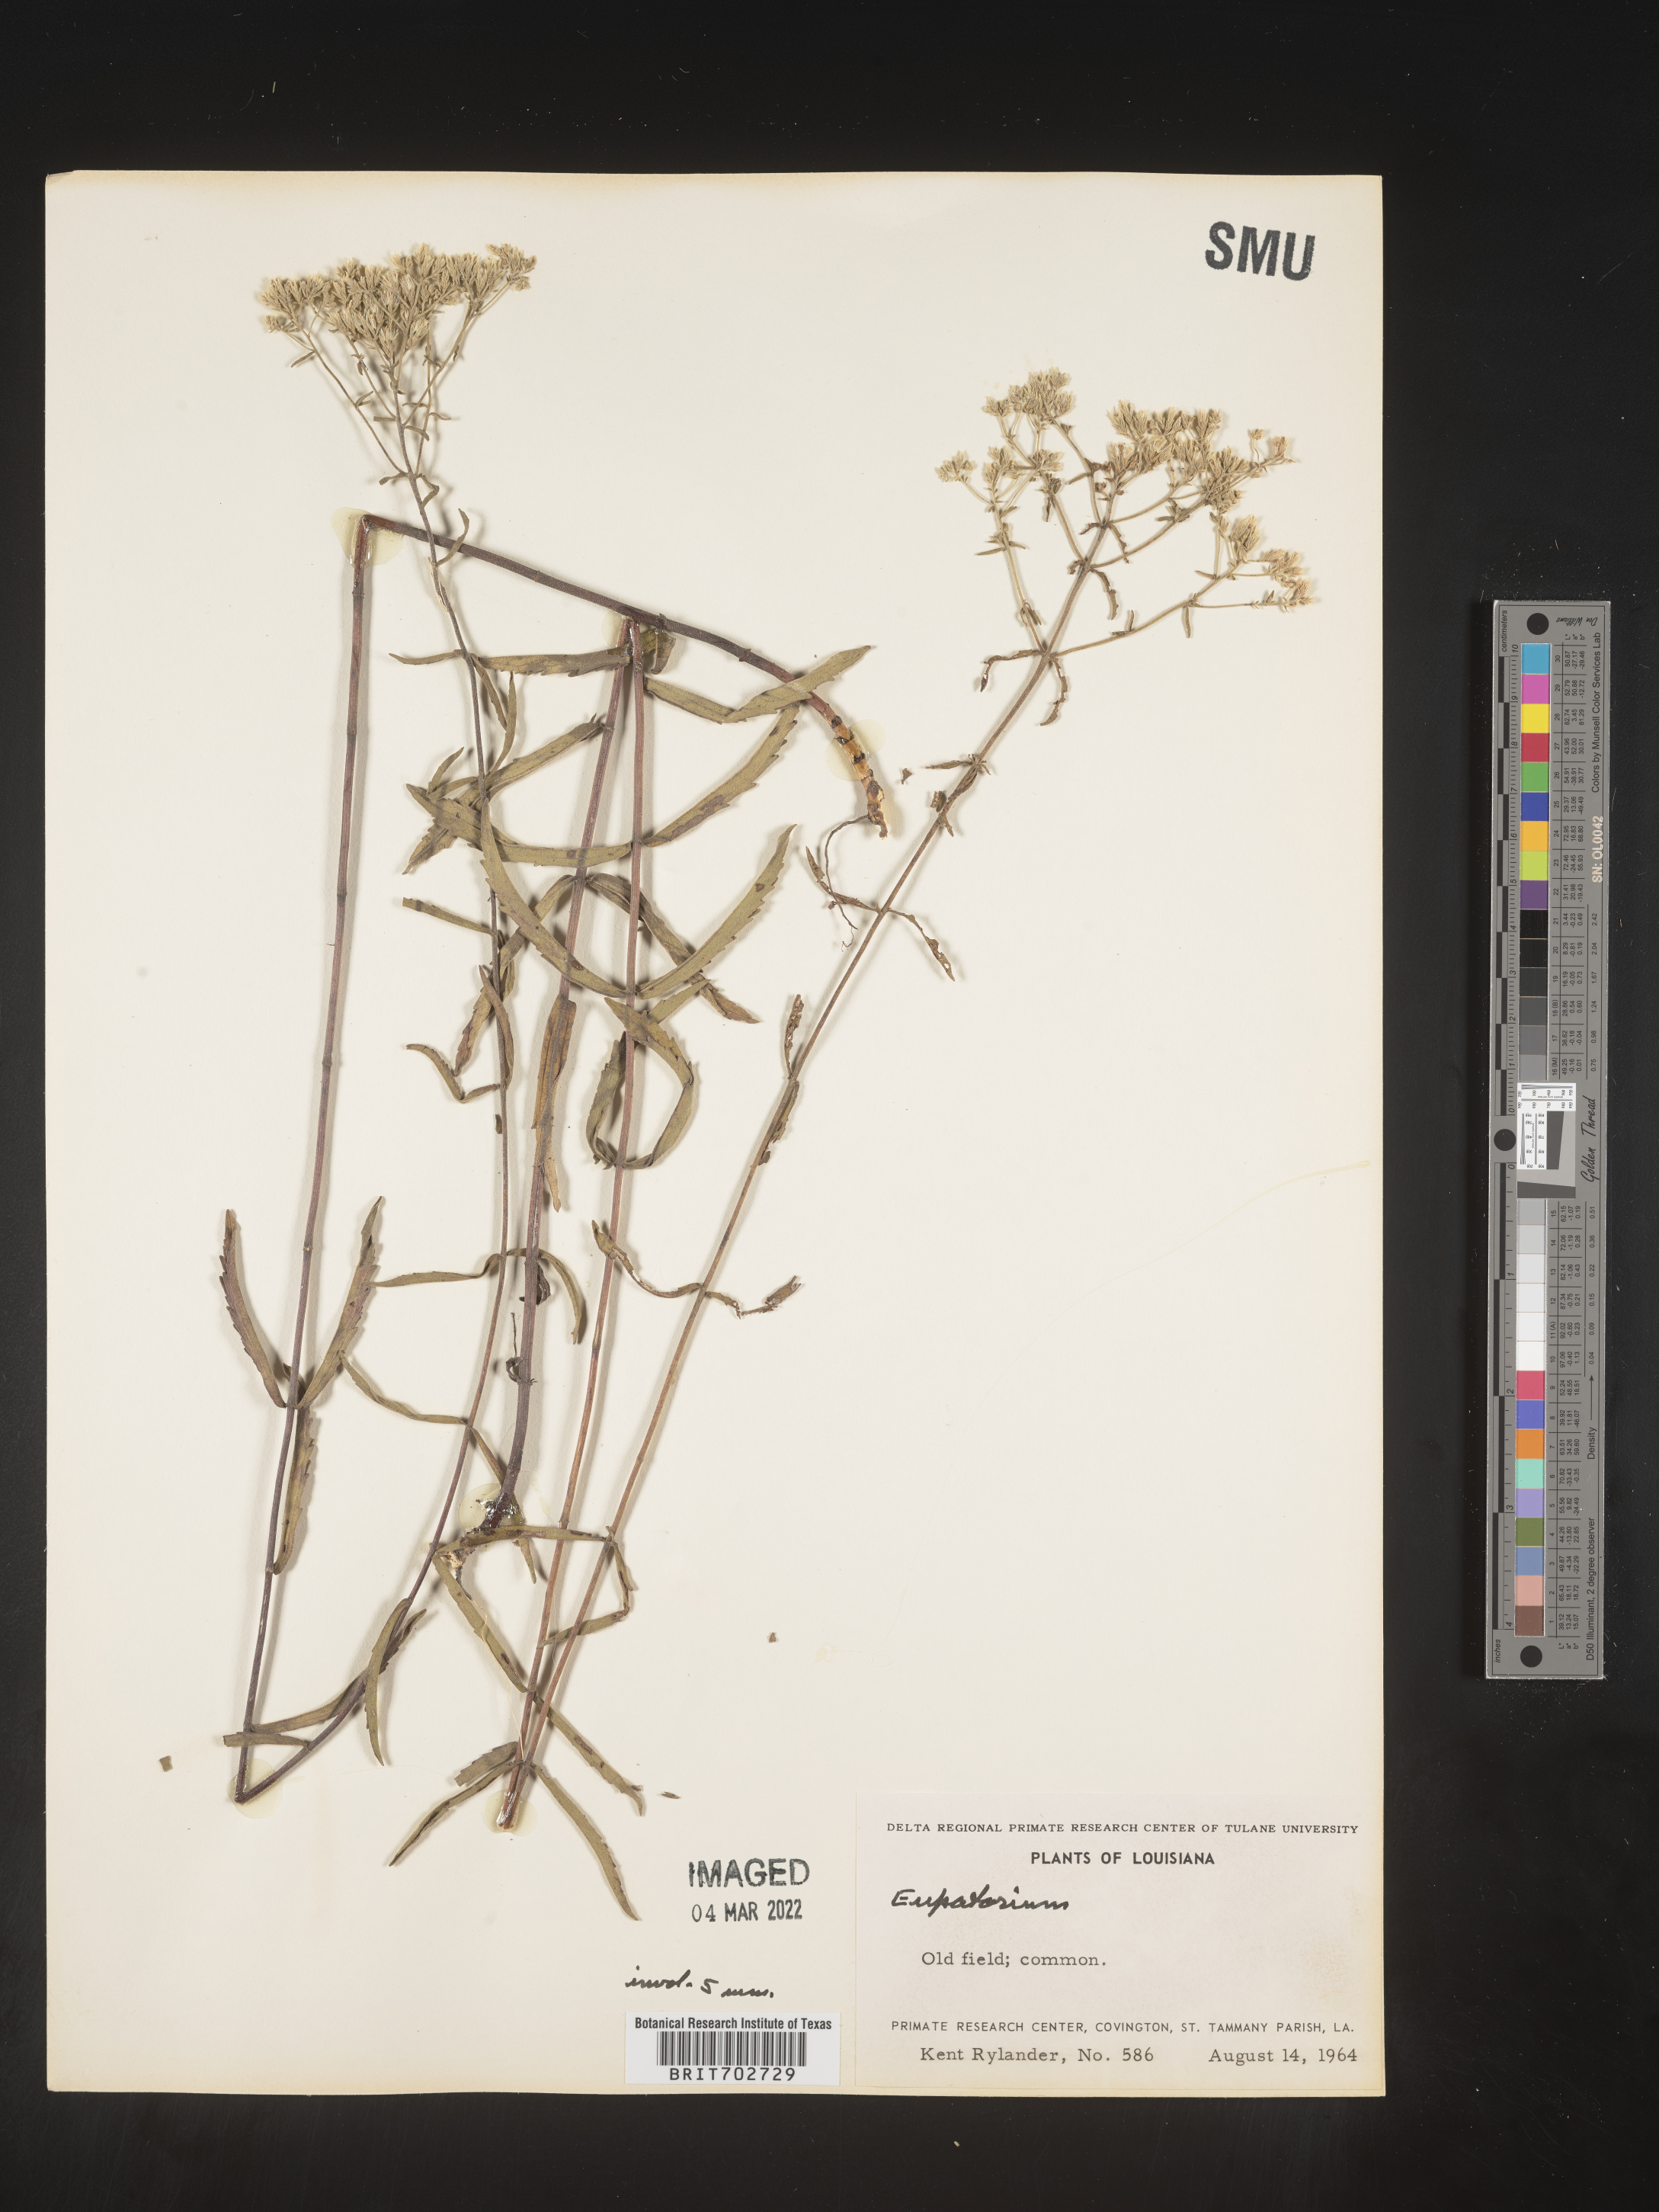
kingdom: Plantae
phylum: Tracheophyta
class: Magnoliopsida
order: Asterales
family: Asteraceae
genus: Eupatorium
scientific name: Eupatorium
